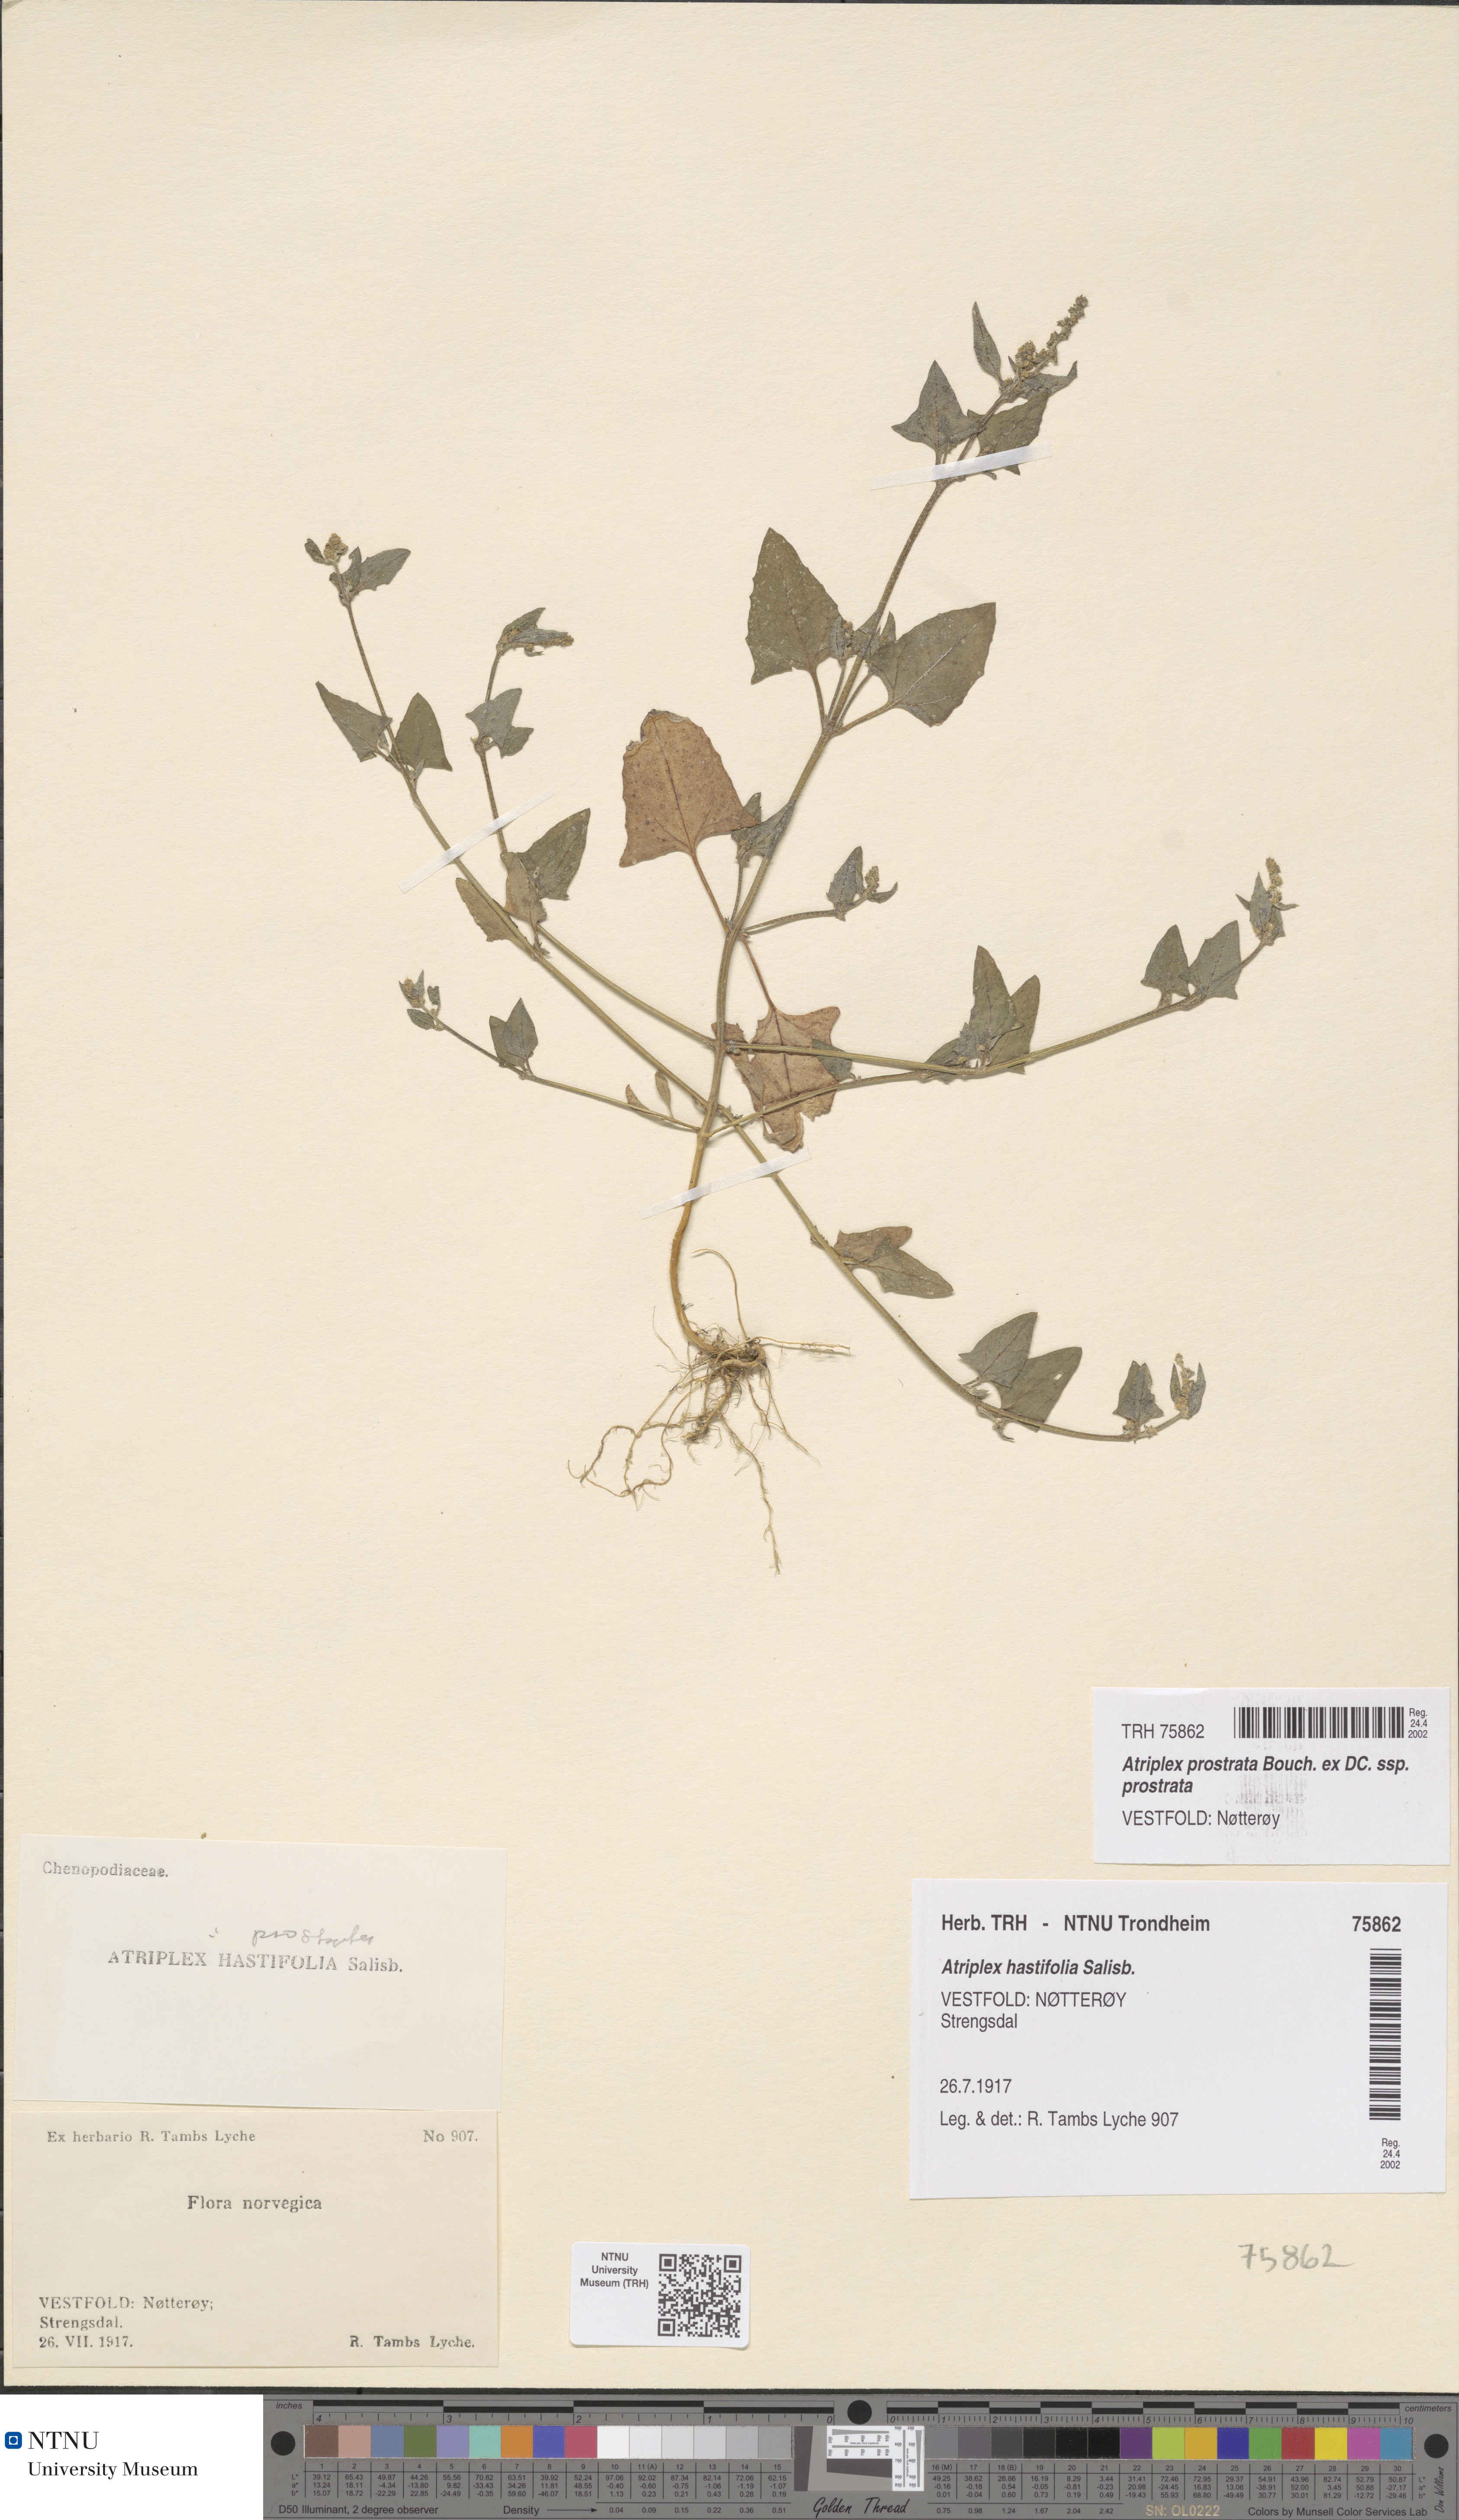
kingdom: Plantae
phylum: Tracheophyta
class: Magnoliopsida
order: Caryophyllales
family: Amaranthaceae
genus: Atriplex
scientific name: Atriplex prostrata
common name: Spear-leaved orache
